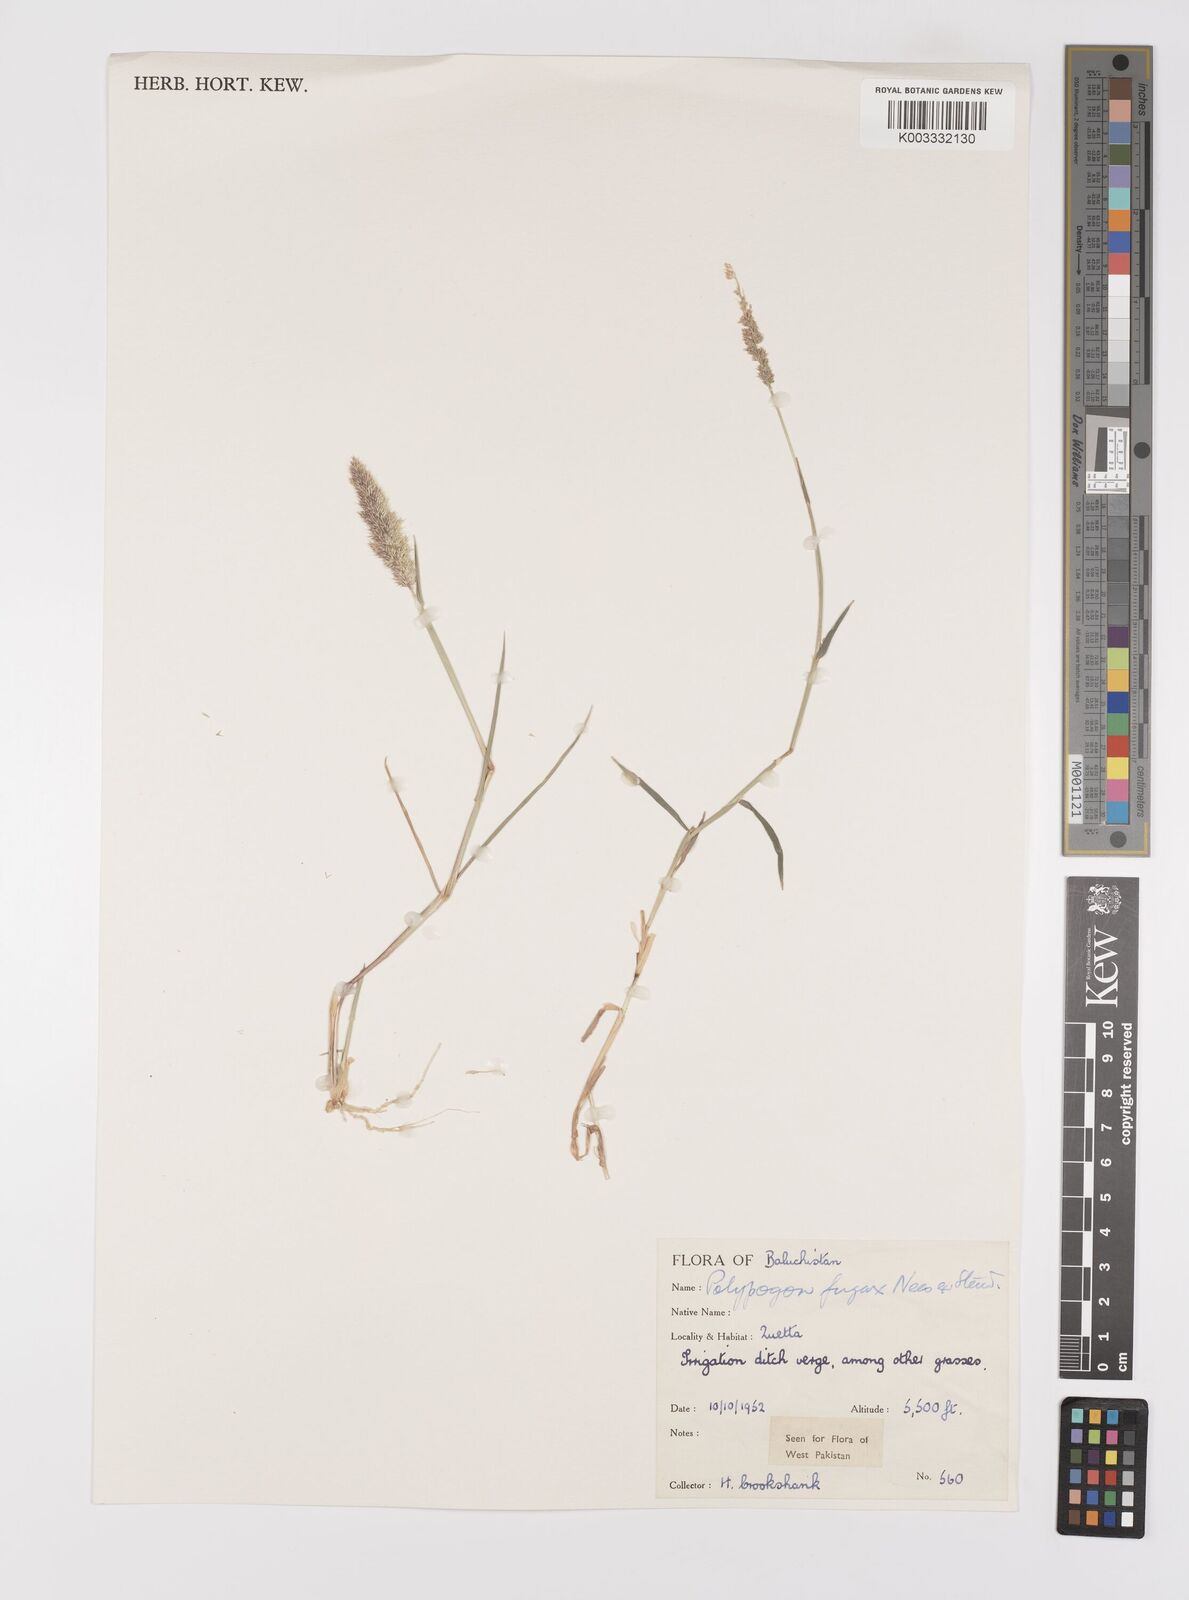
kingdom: Plantae
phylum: Tracheophyta
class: Liliopsida
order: Poales
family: Poaceae
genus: Polypogon
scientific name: Polypogon fugax
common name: Asia minor bluegrass
